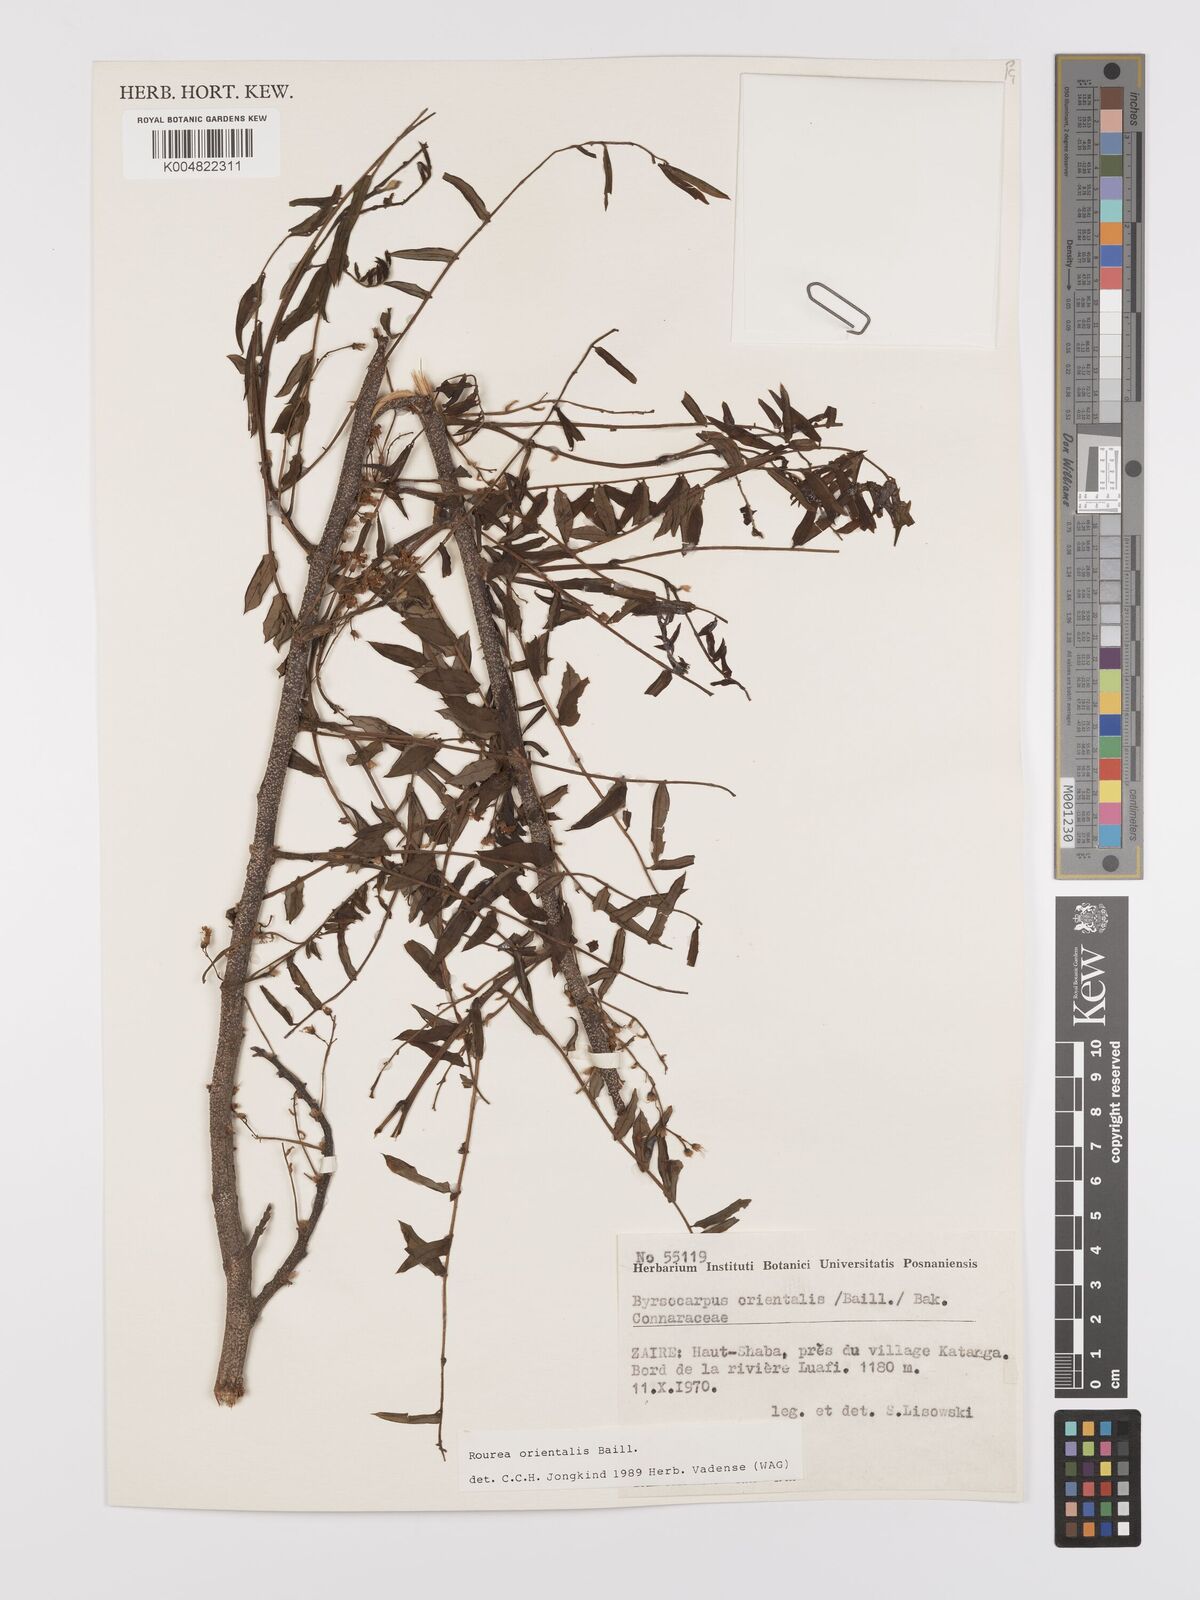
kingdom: Plantae
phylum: Tracheophyta
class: Magnoliopsida
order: Oxalidales
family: Connaraceae
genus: Rourea
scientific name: Rourea orientalis
